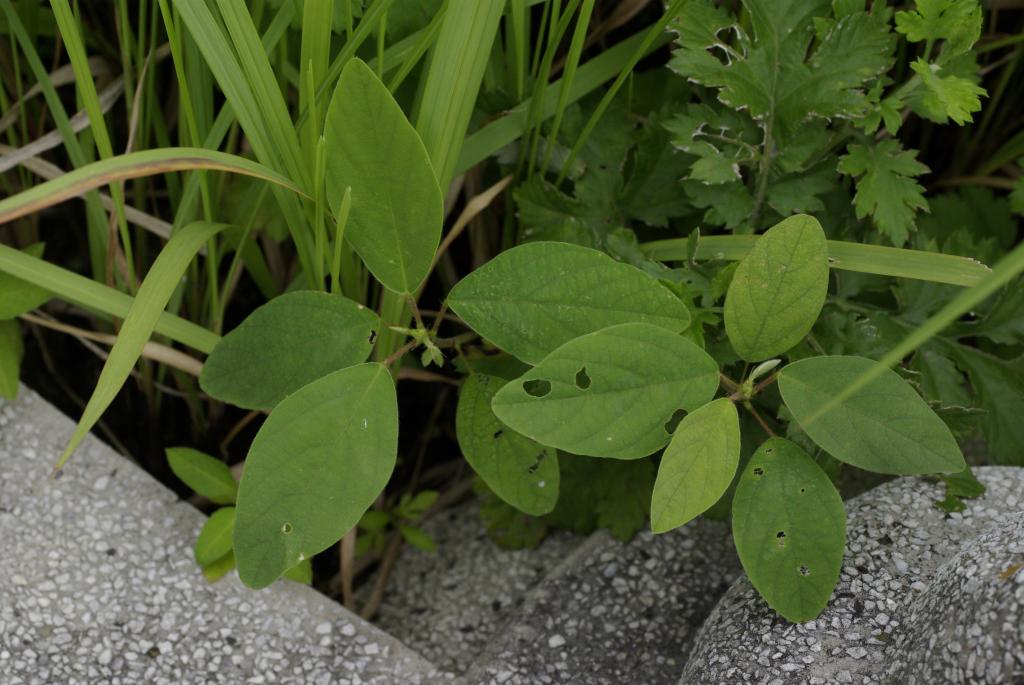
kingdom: Plantae
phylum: Tracheophyta
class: Magnoliopsida
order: Fabales
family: Fabaceae
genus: Desmodium
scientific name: Desmodium tortuosum
